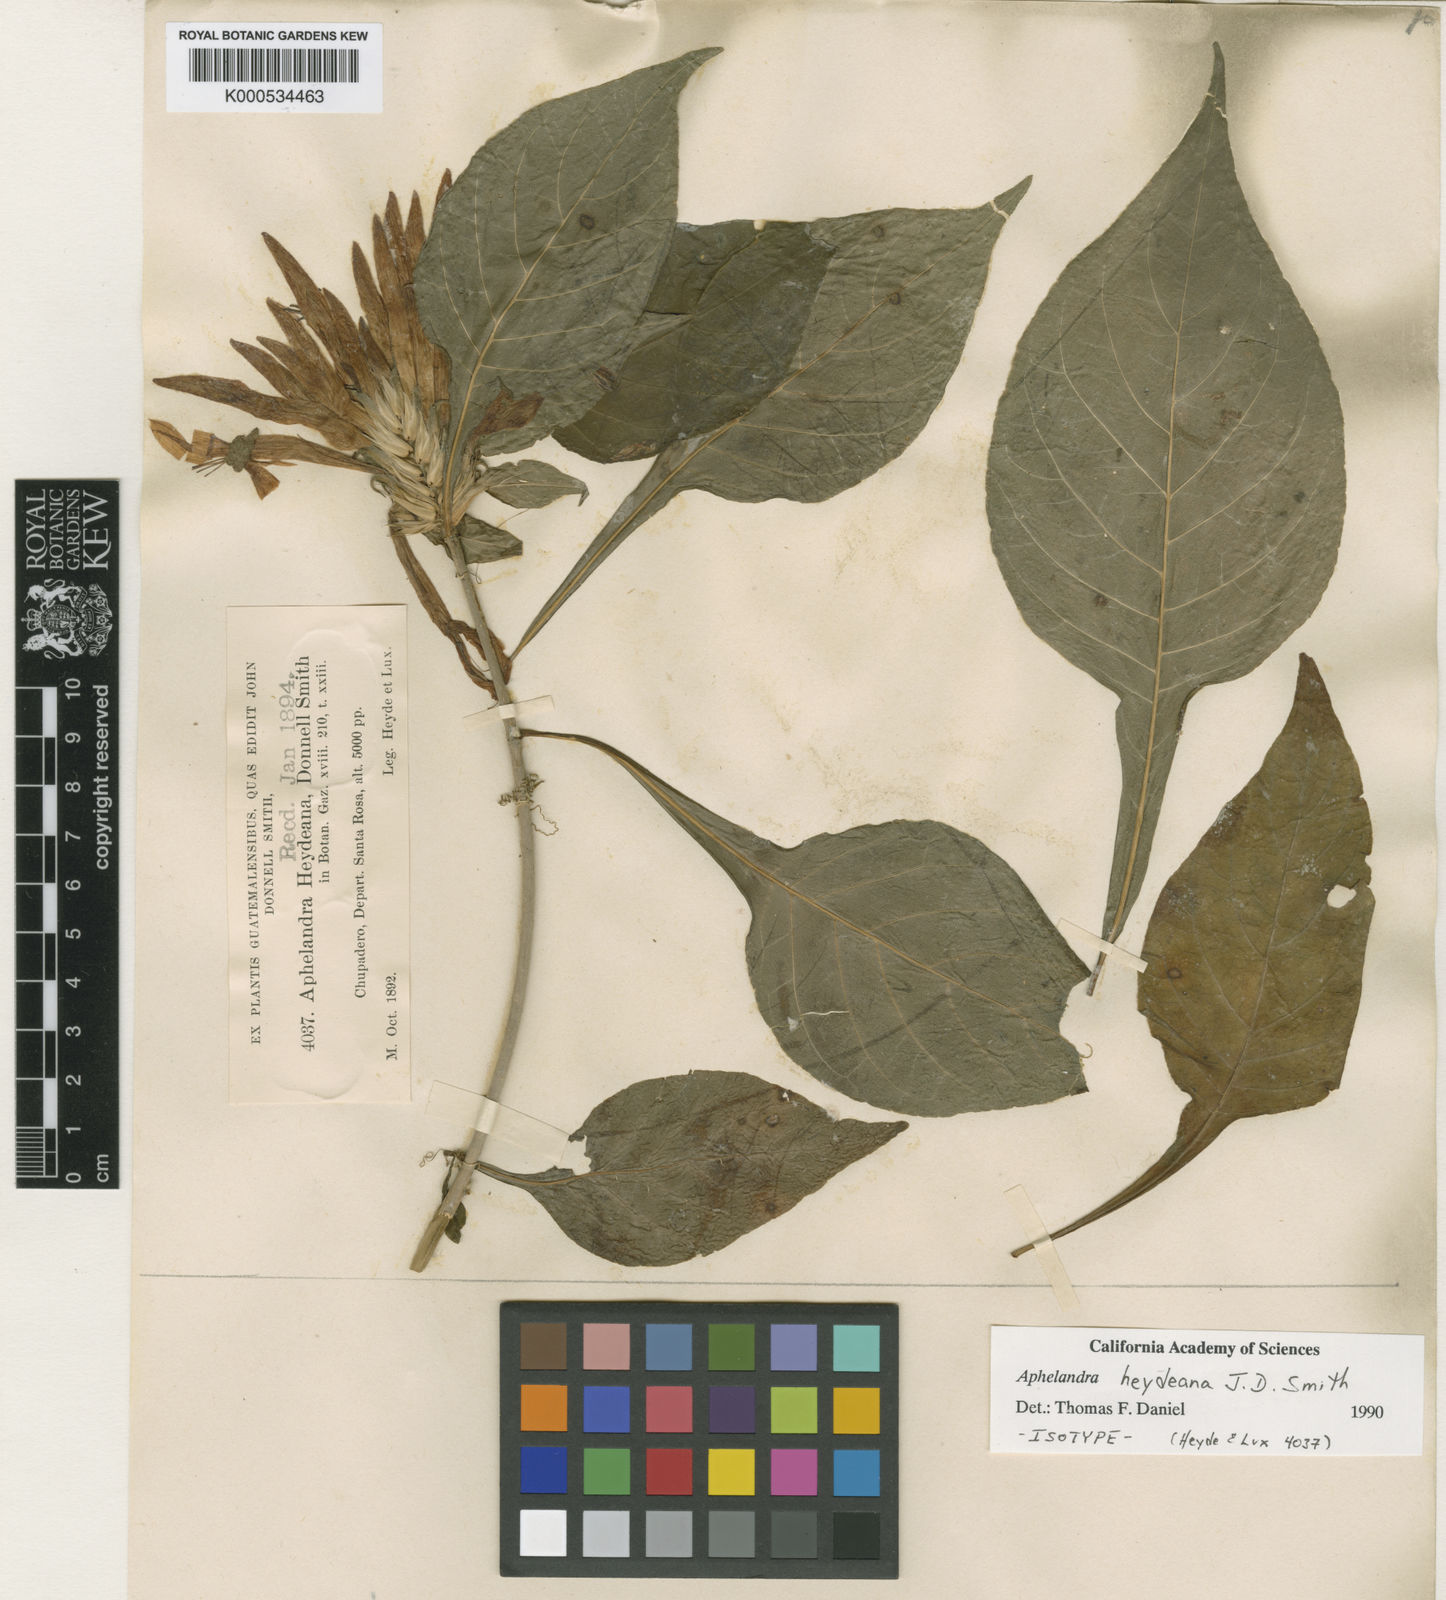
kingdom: Plantae
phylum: Tracheophyta
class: Magnoliopsida
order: Lamiales
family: Acanthaceae
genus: Aphelandra
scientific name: Aphelandra heydeana
